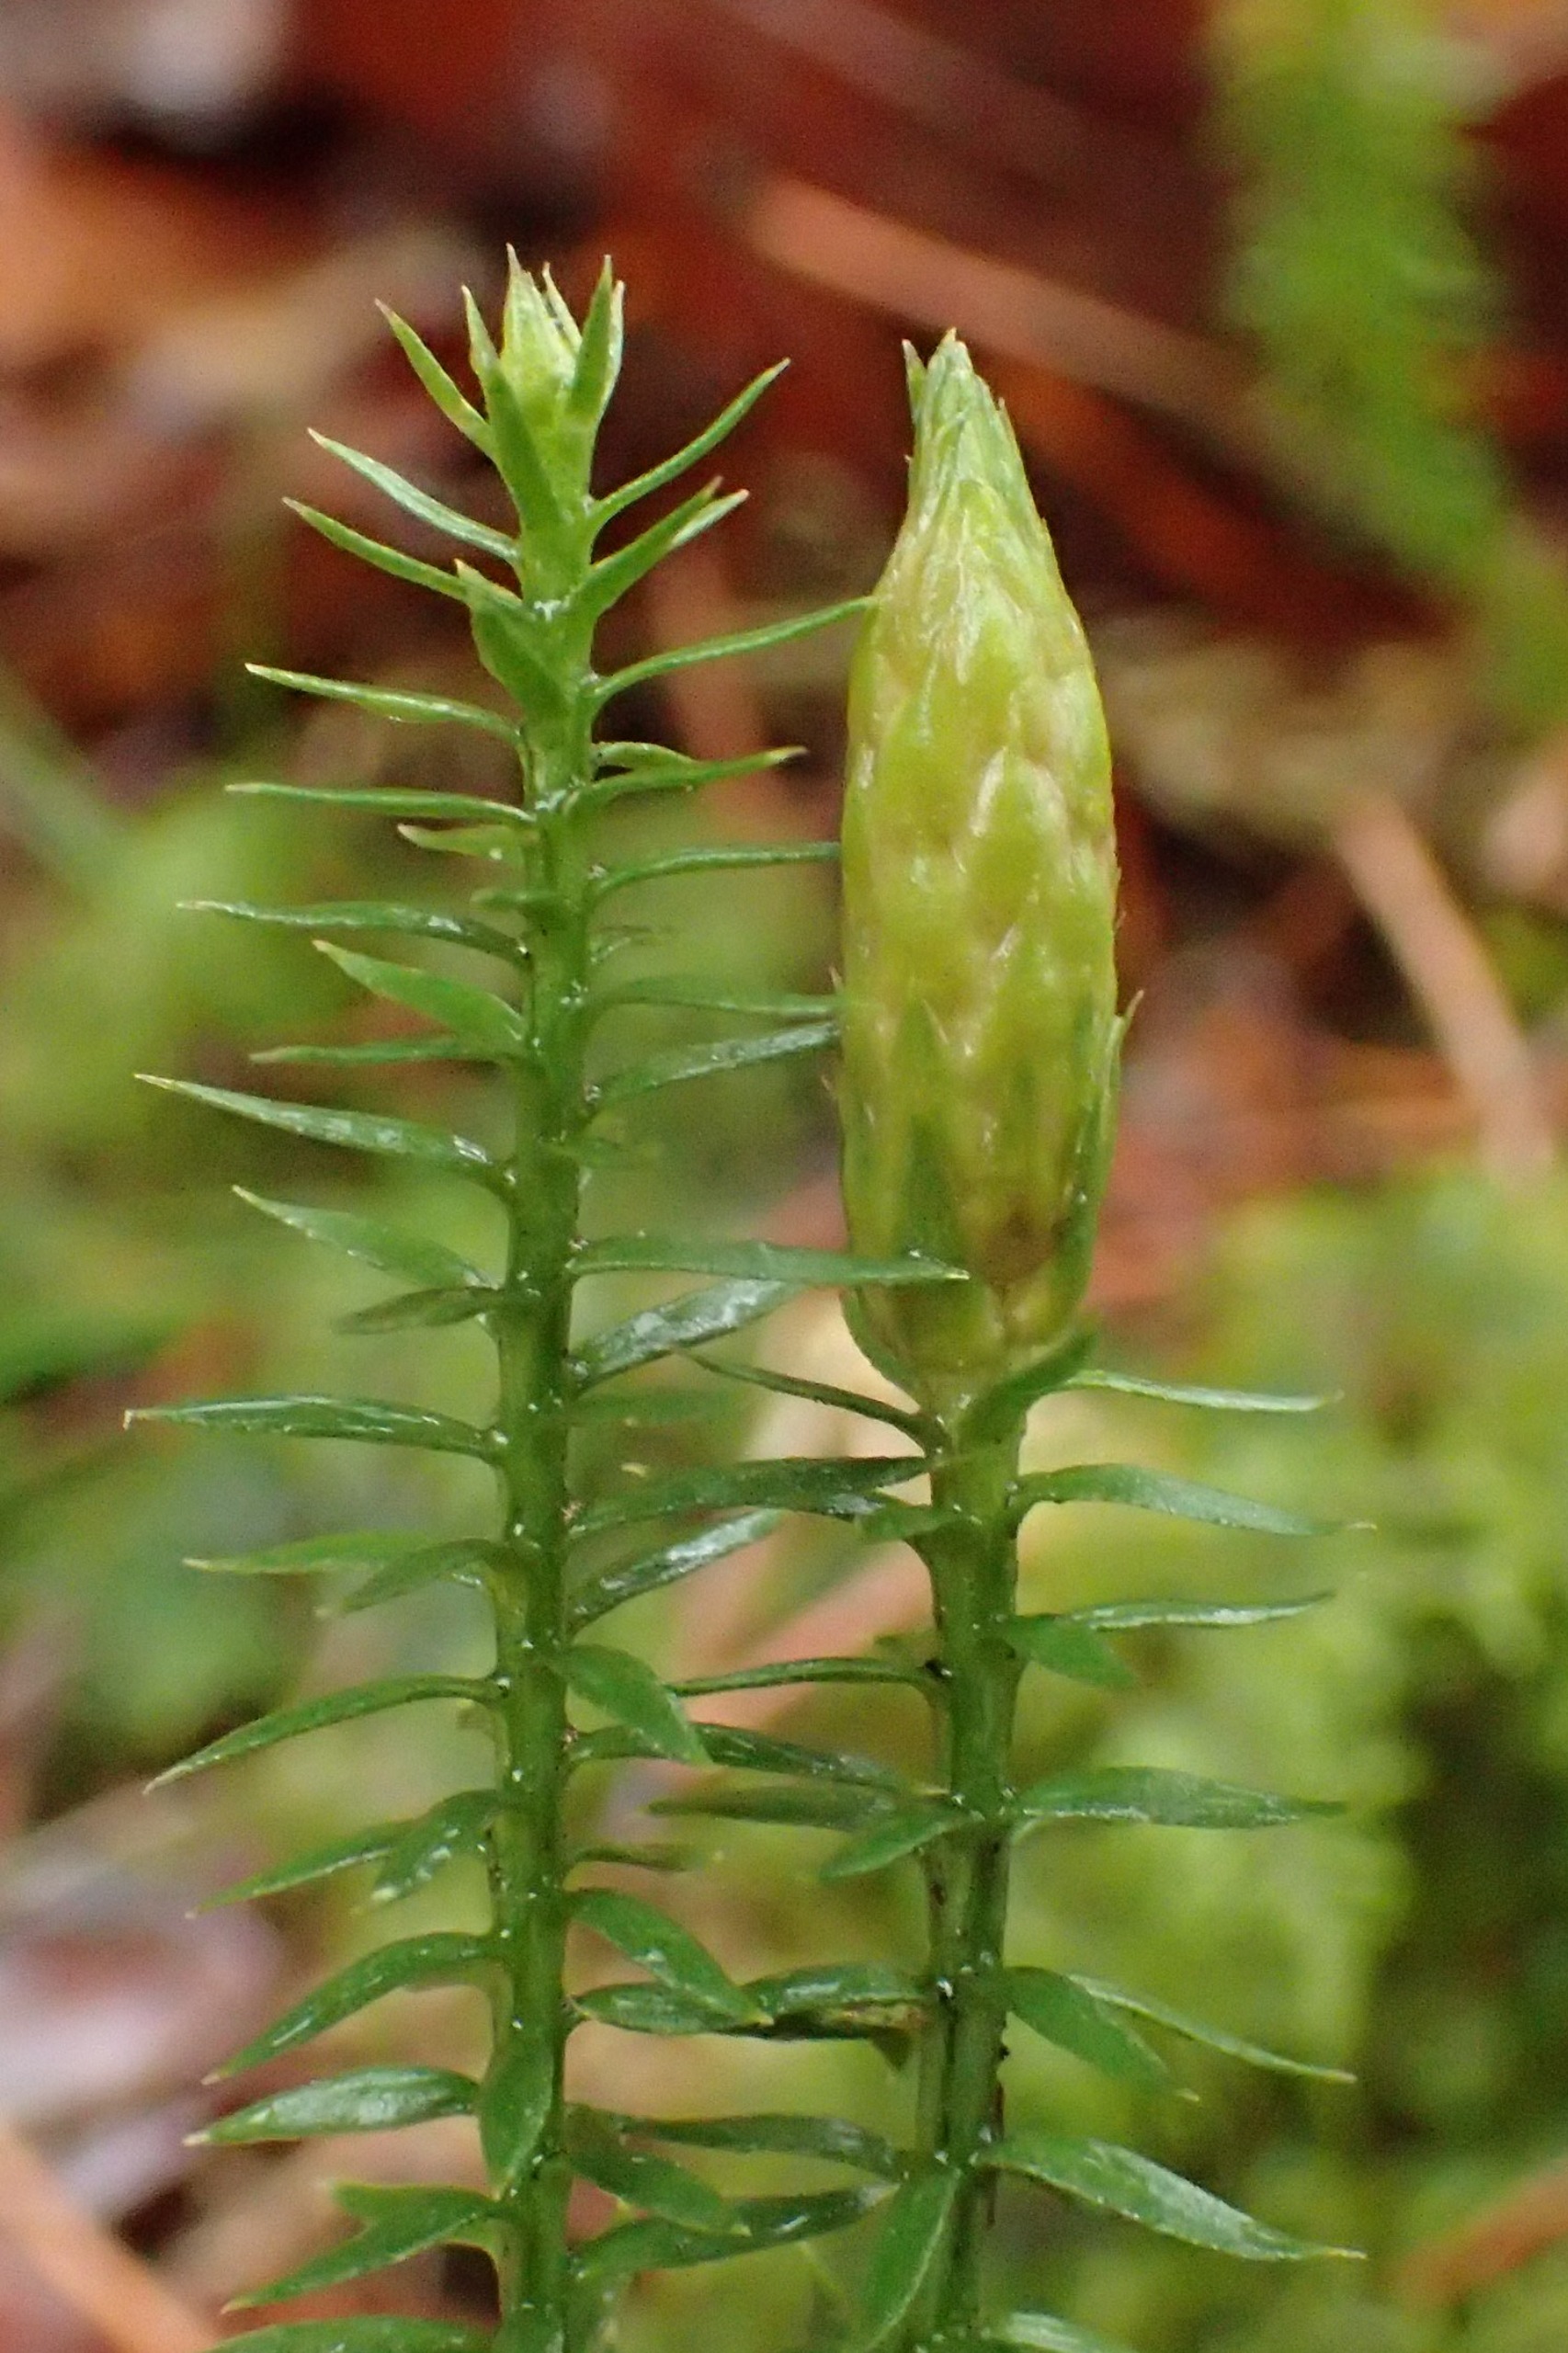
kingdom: Plantae
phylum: Tracheophyta
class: Lycopodiopsida
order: Lycopodiales
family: Lycopodiaceae
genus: Spinulum
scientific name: Spinulum annotinum
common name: Femradet ulvefod
